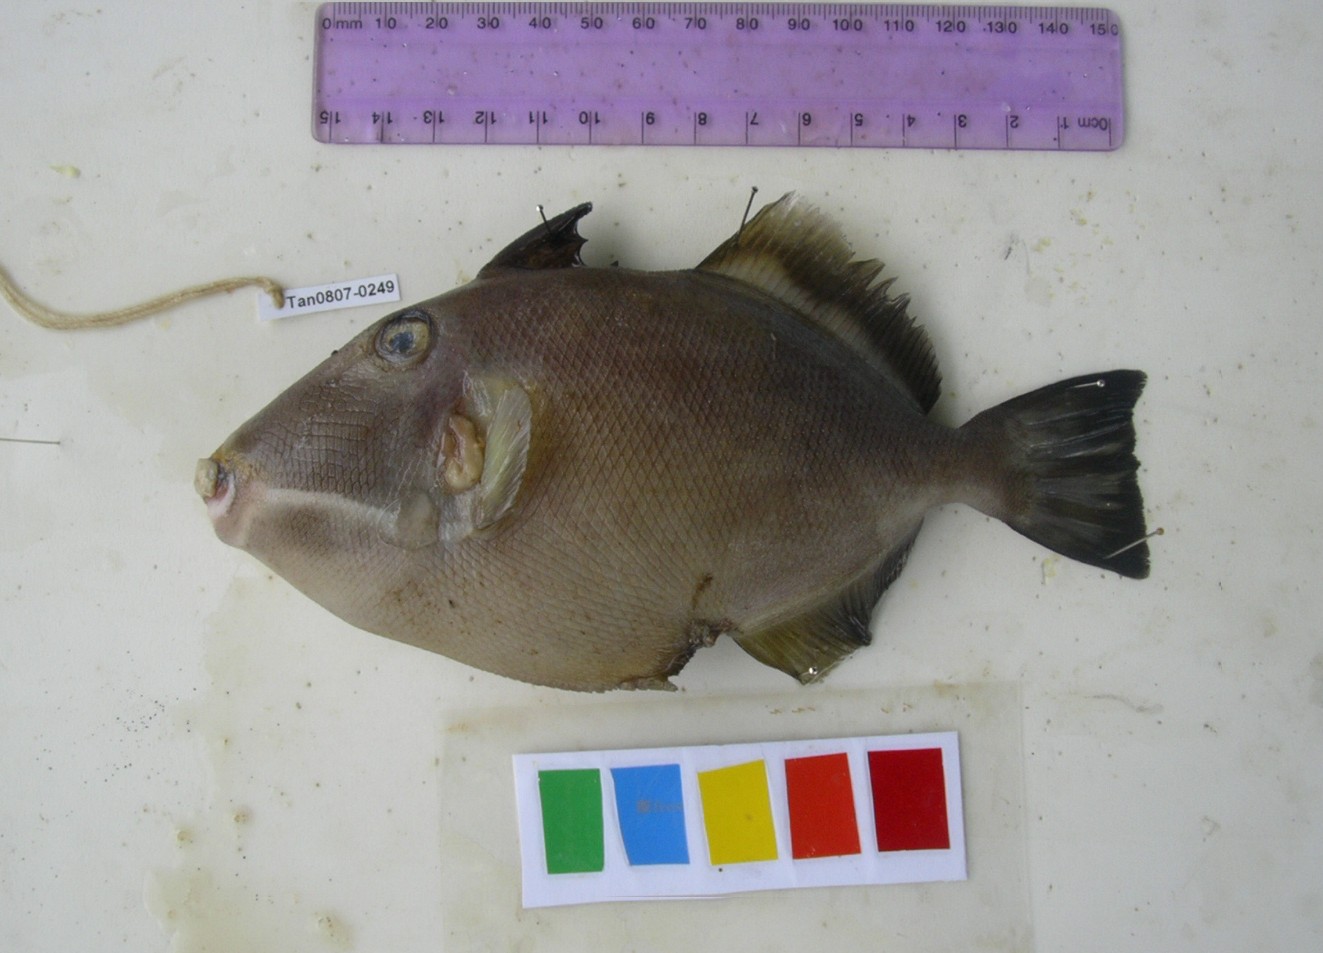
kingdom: Animalia
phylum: Chordata
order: Tetraodontiformes
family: Balistidae
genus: Sufflamen
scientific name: Sufflamen fraenatum
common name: Bridle triggerfish
